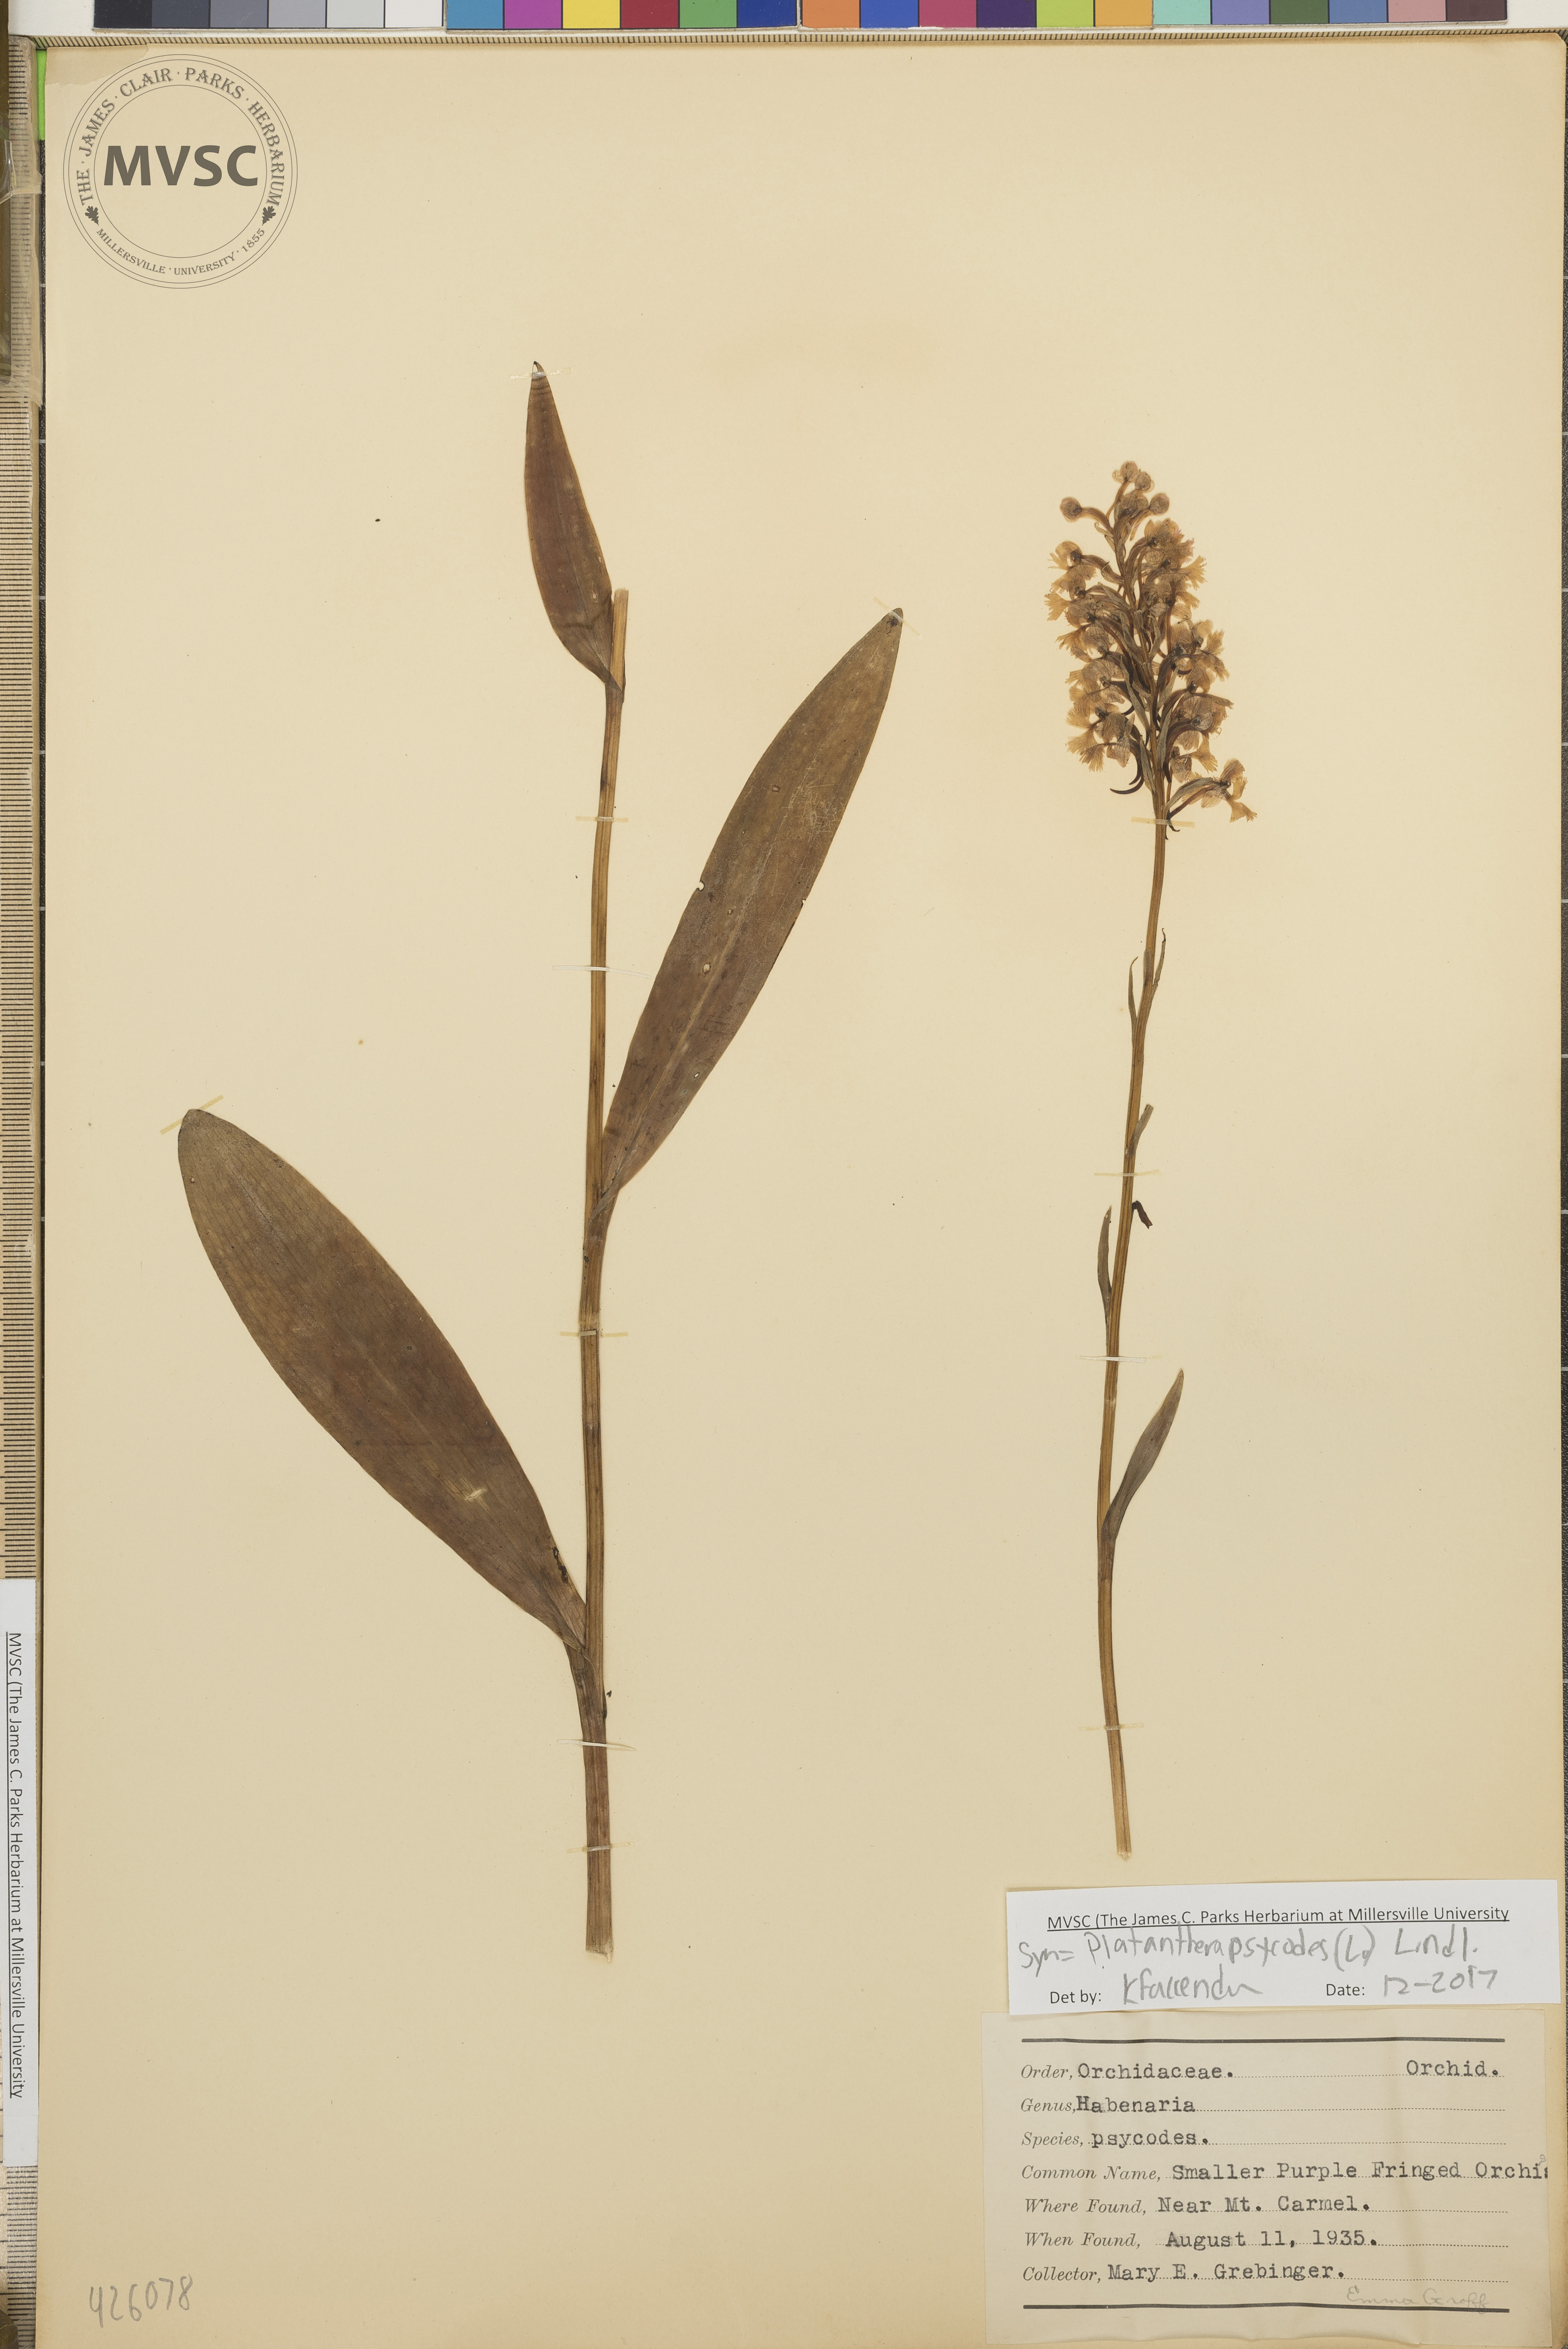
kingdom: Plantae
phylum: Tracheophyta
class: Liliopsida
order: Asparagales
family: Orchidaceae
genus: Platanthera
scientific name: Platanthera psycodes
